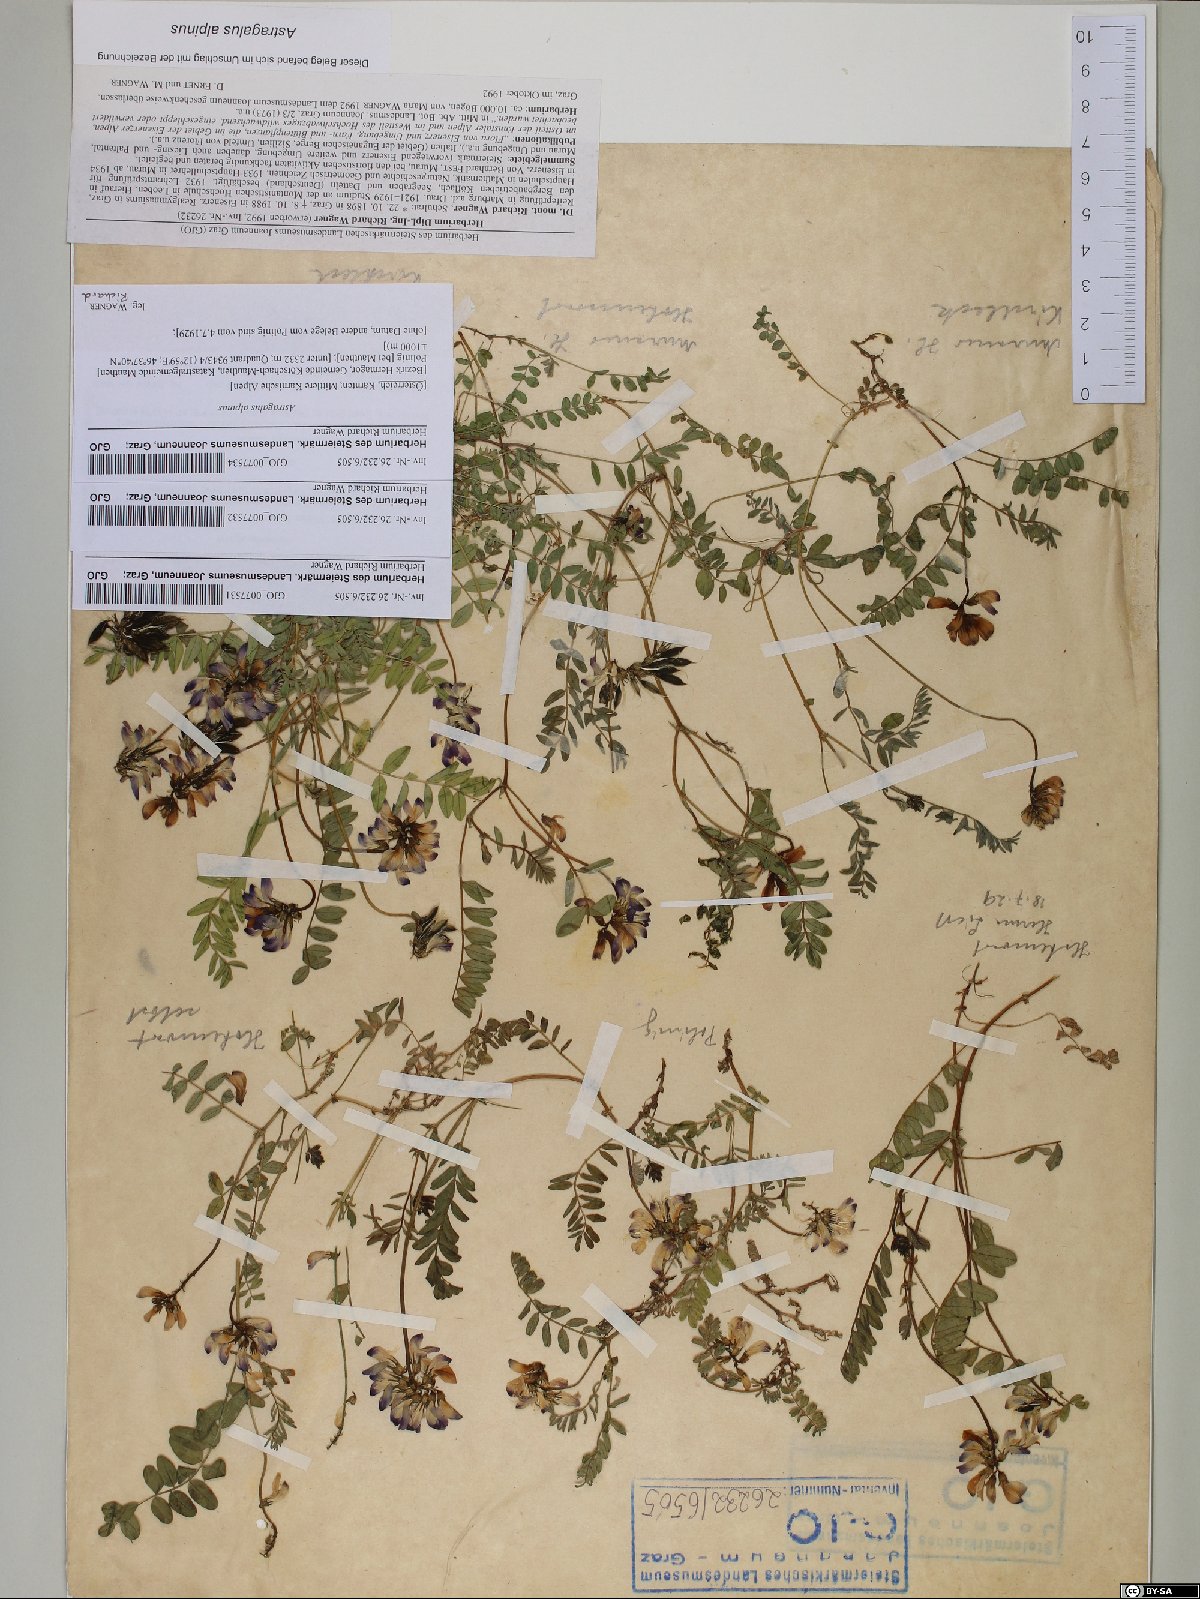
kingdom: Plantae
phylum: Tracheophyta
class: Magnoliopsida
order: Fabales
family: Fabaceae
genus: Astragalus
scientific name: Astragalus alpinus
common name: Alpine milk-vetch
